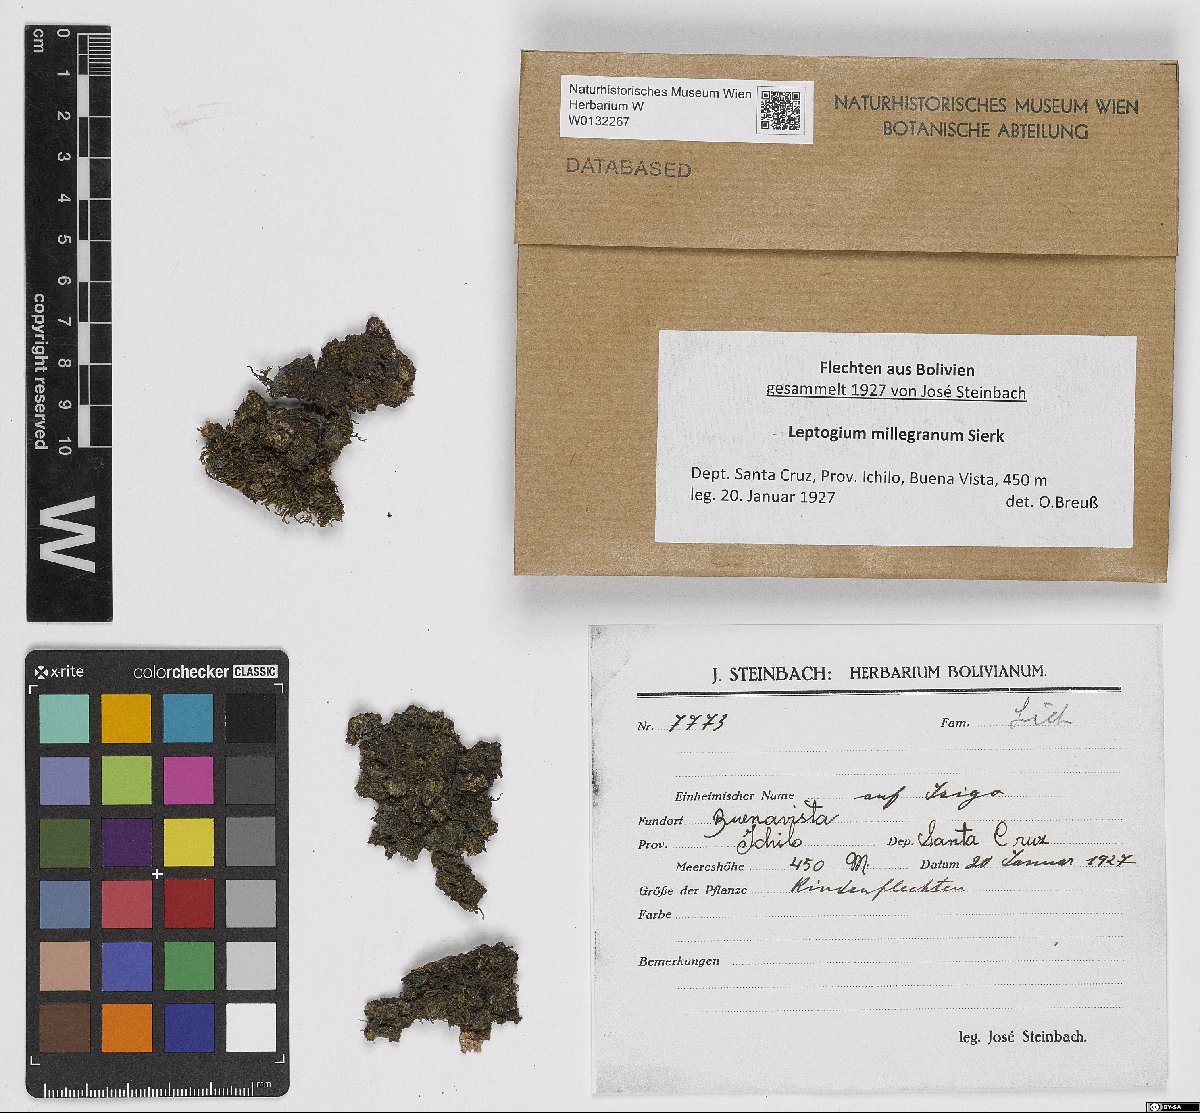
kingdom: Fungi
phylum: Ascomycota
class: Lecanoromycetes
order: Peltigerales
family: Collemataceae
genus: Leptogium
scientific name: Leptogium milligranum
